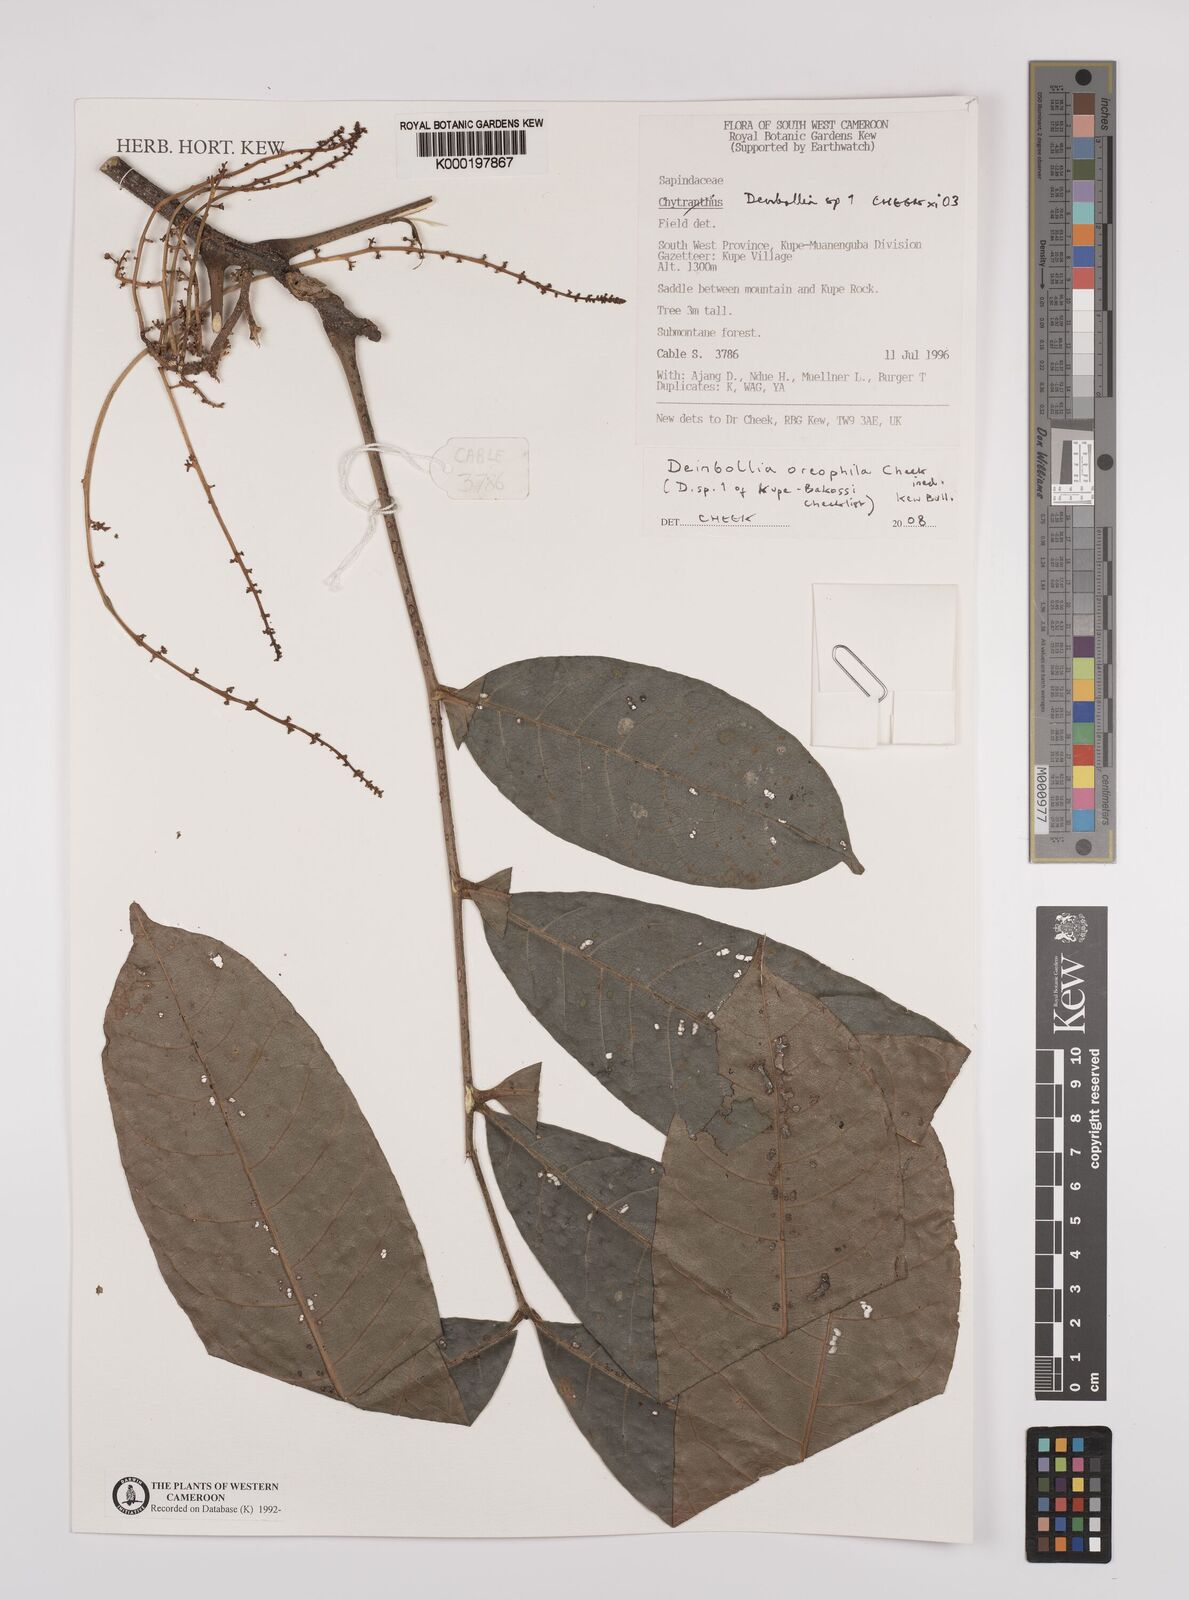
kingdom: Plantae
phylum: Tracheophyta
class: Magnoliopsida
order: Sapindales
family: Sapindaceae
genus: Deinbollia
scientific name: Deinbollia oreophila
